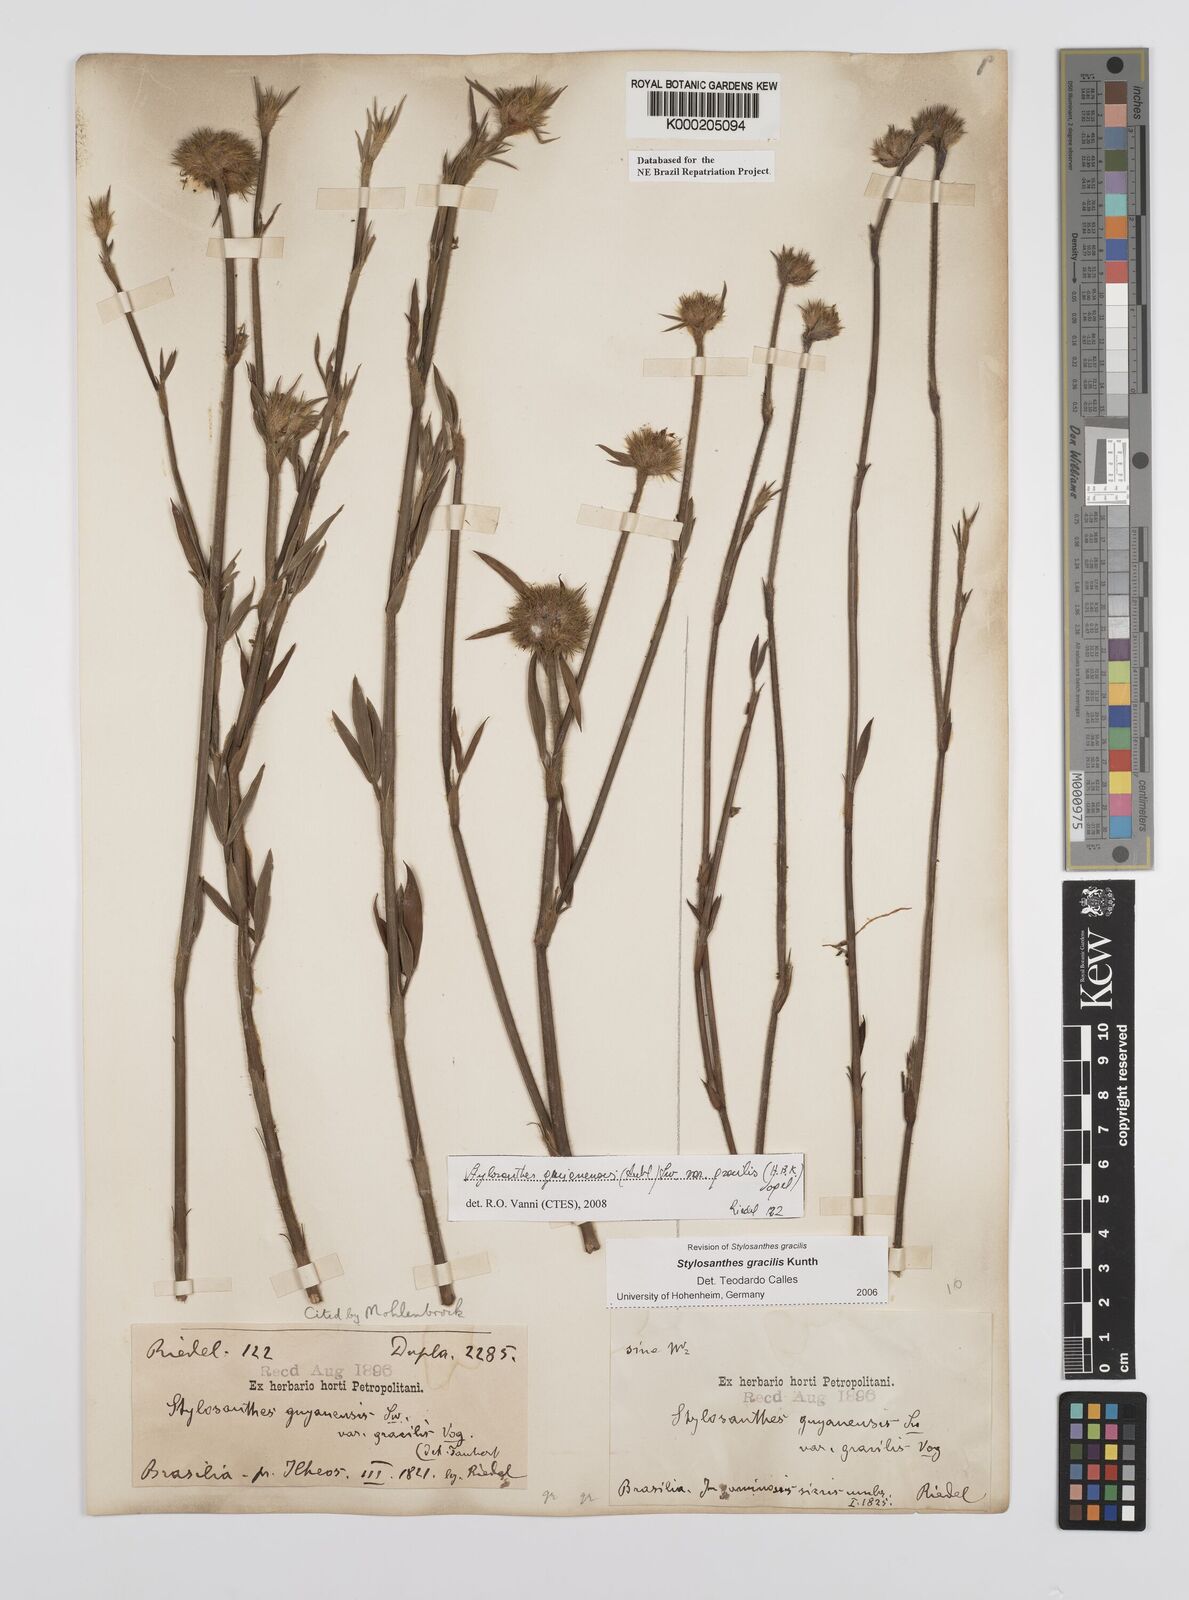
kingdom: Plantae
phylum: Tracheophyta
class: Magnoliopsida
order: Fabales
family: Fabaceae
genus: Stylosanthes
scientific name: Stylosanthes guianensis
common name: Pencil flower
